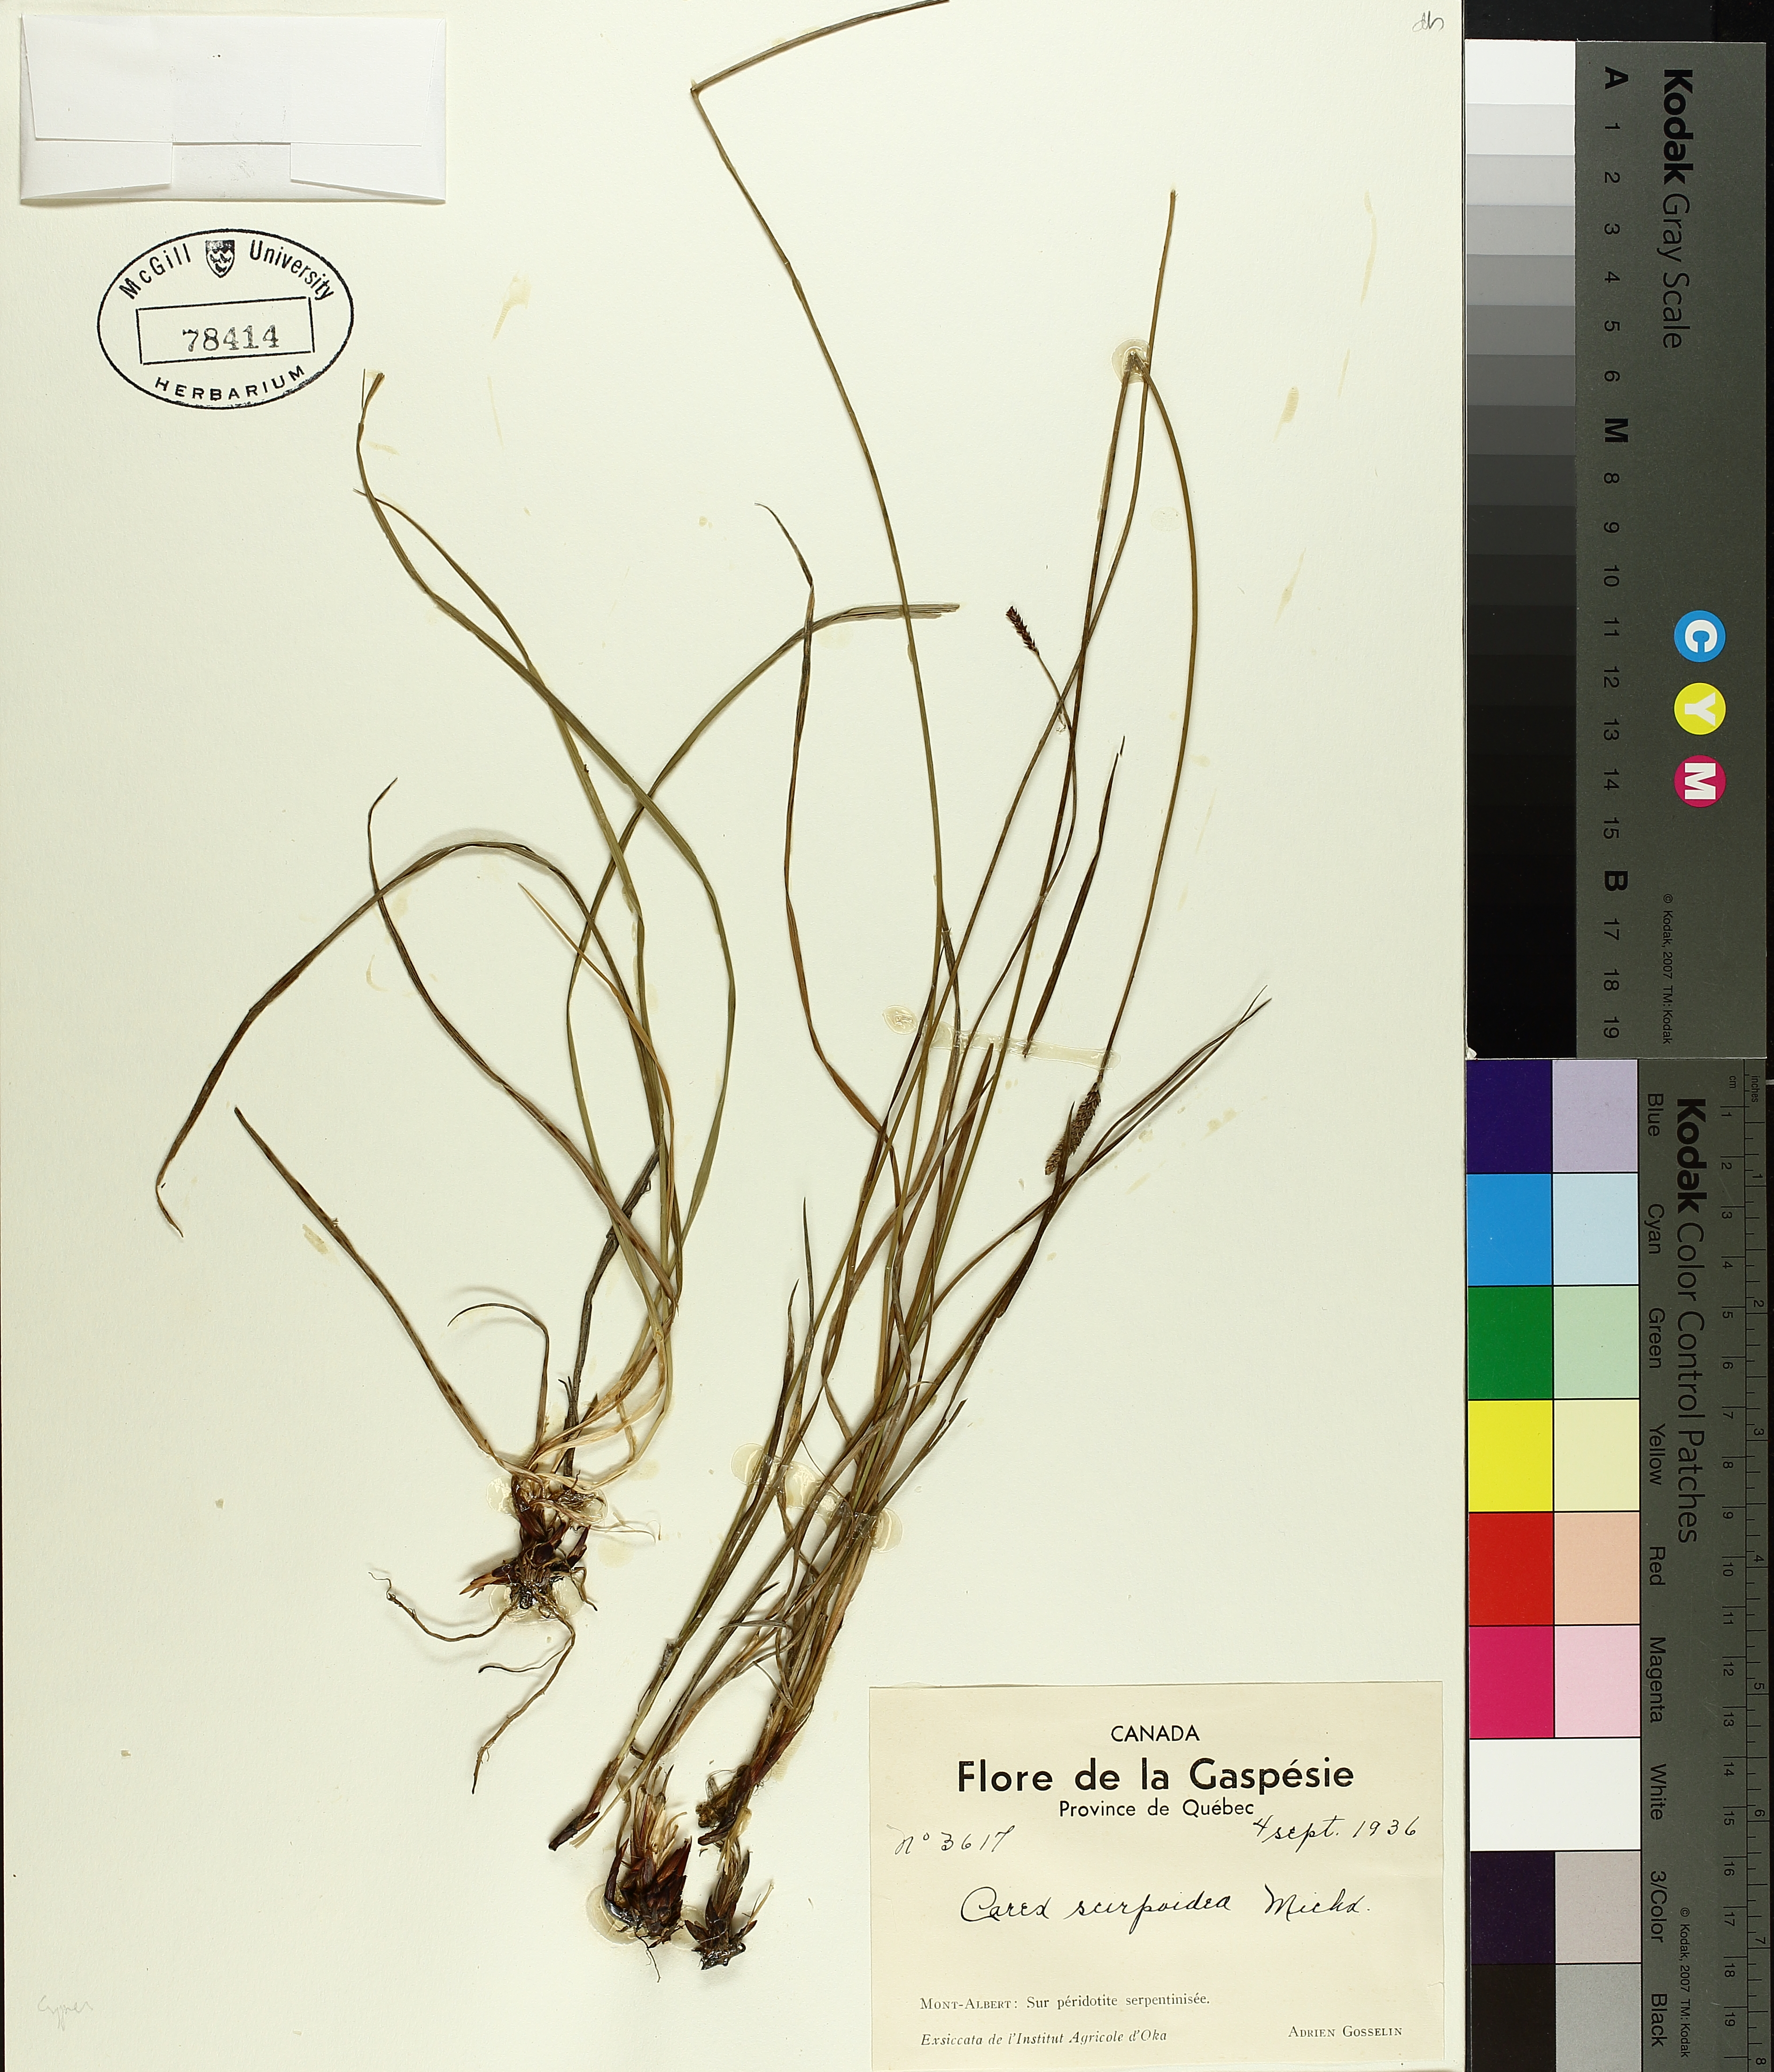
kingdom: Plantae
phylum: Tracheophyta
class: Liliopsida
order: Poales
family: Cyperaceae
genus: Carex
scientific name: Carex scirpoidea
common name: Canada single-spike sedge
